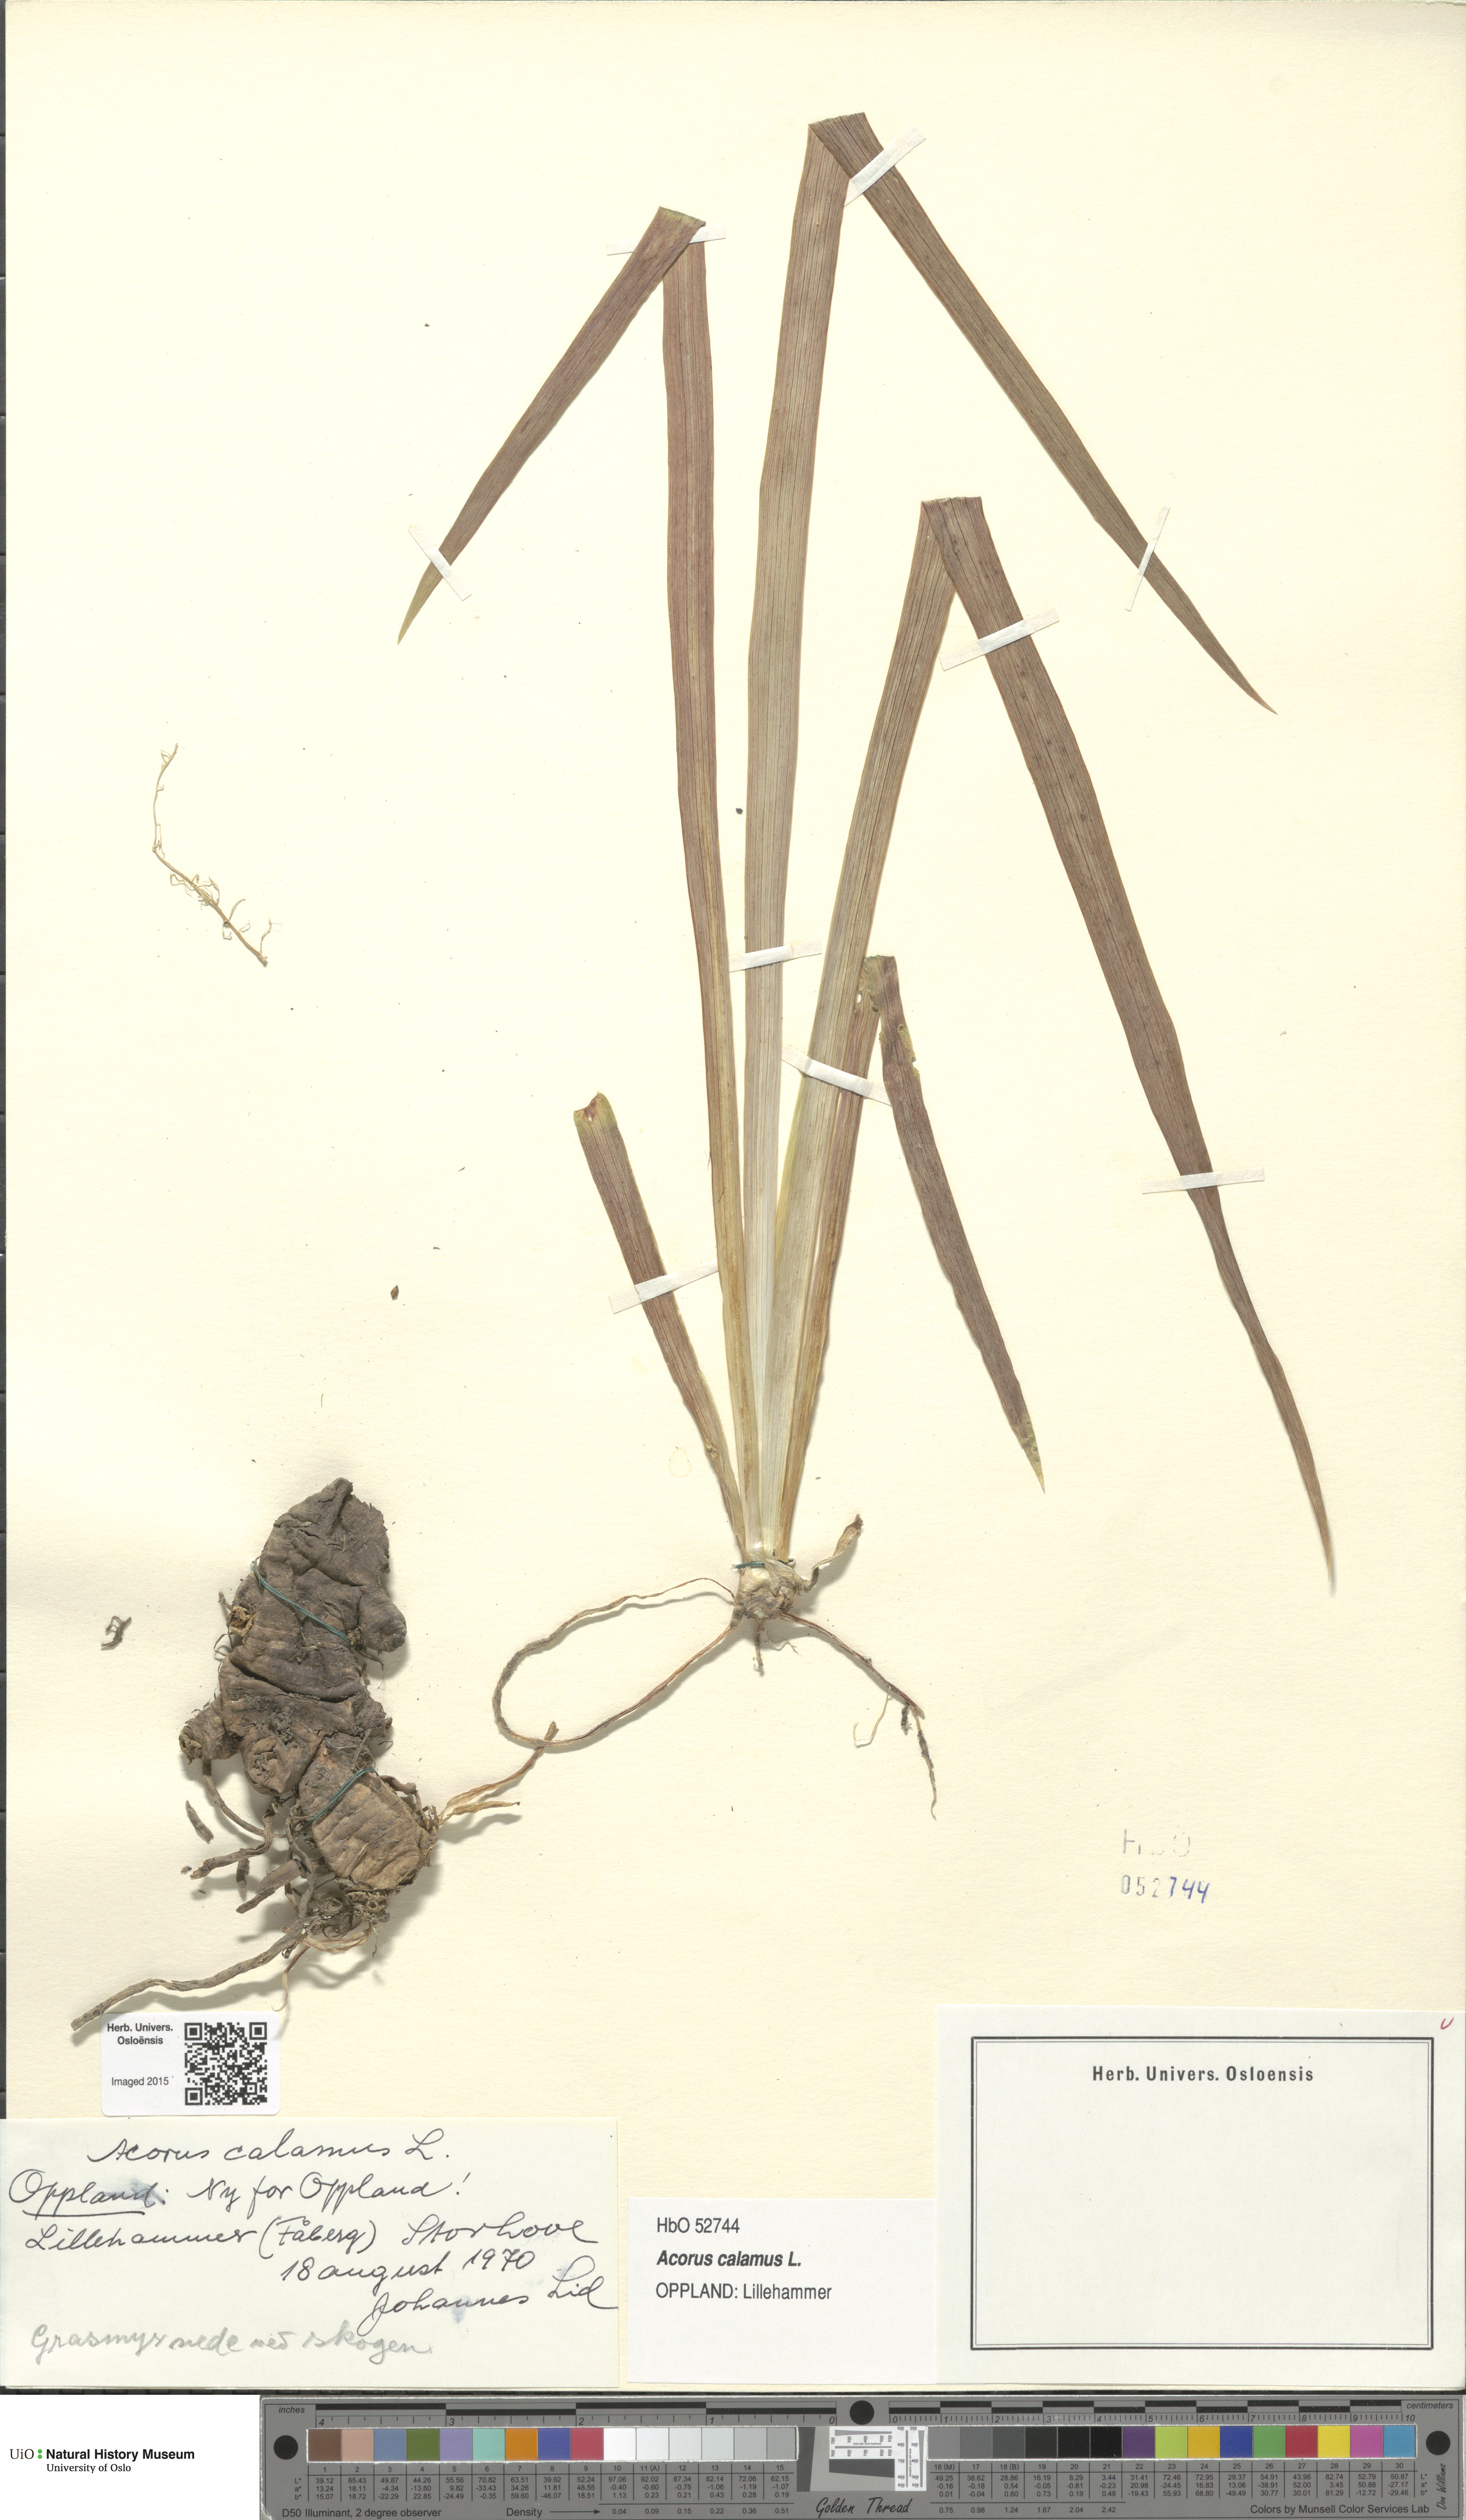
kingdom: Plantae
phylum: Tracheophyta
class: Liliopsida
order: Acorales
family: Acoraceae
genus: Acorus
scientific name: Acorus calamus
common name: Sweet-flag
